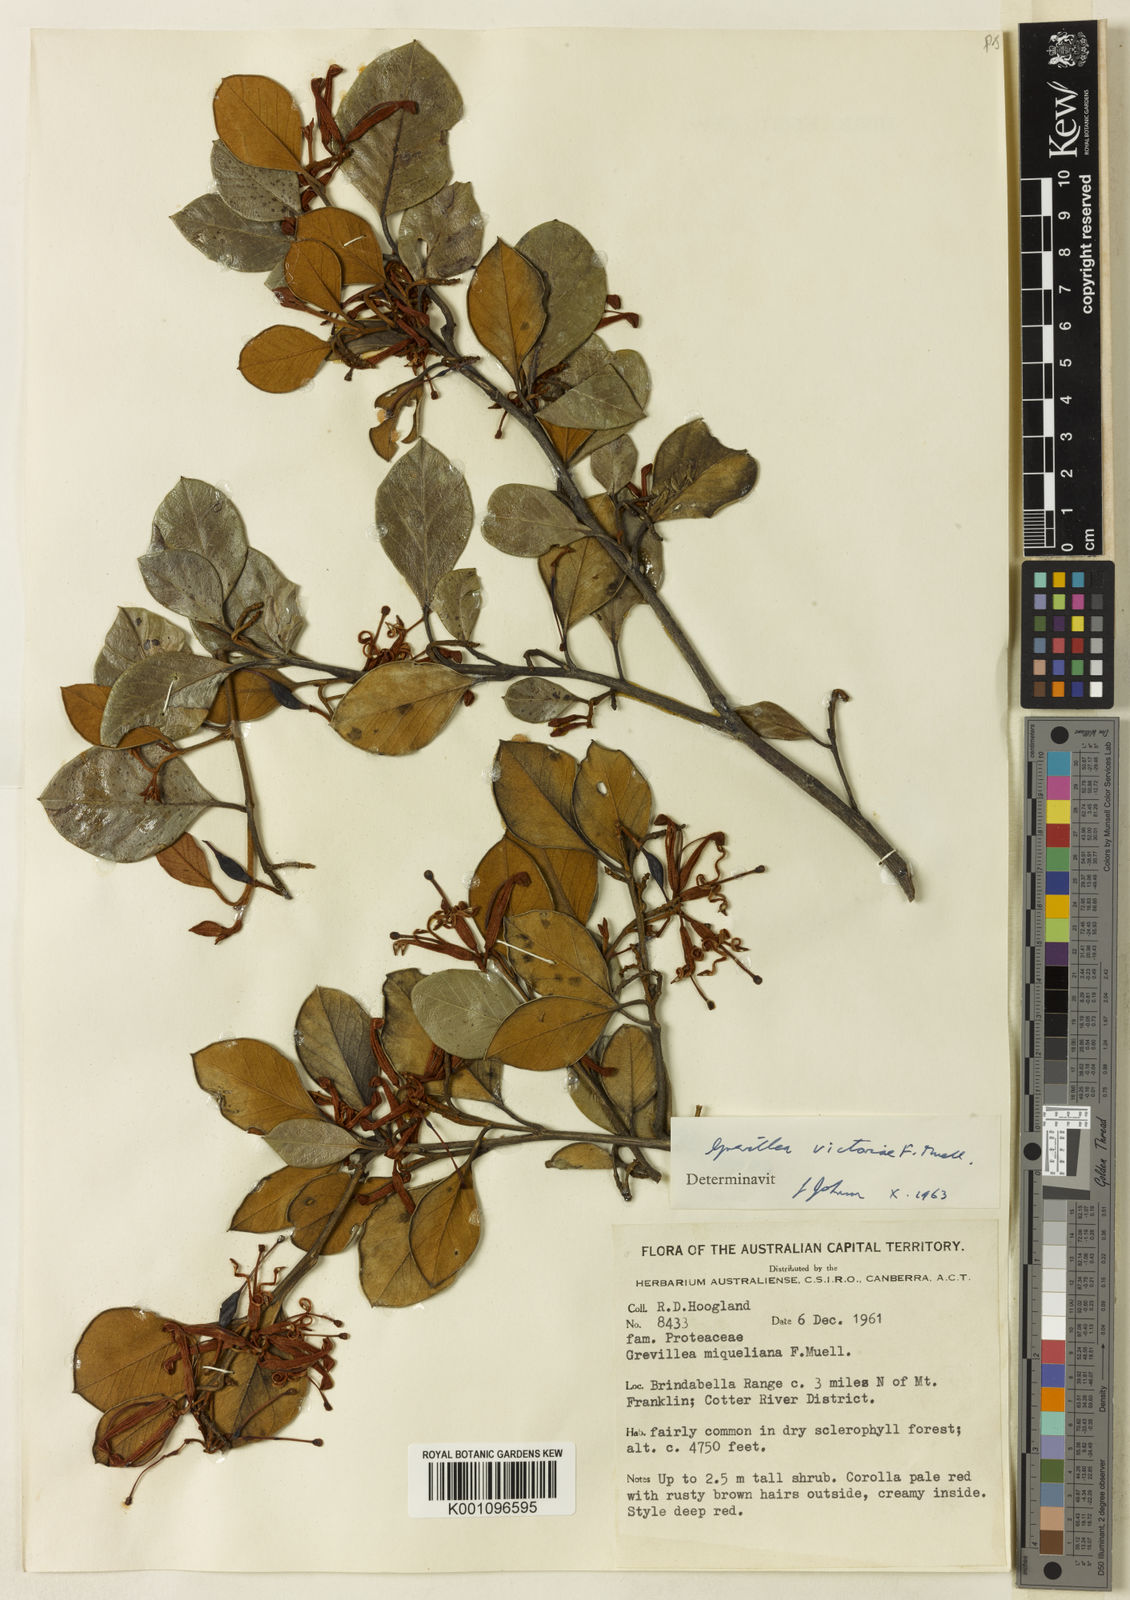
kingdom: Plantae
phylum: Tracheophyta
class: Magnoliopsida
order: Proteales
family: Proteaceae
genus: Grevillea
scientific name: Grevillea oxyantha
